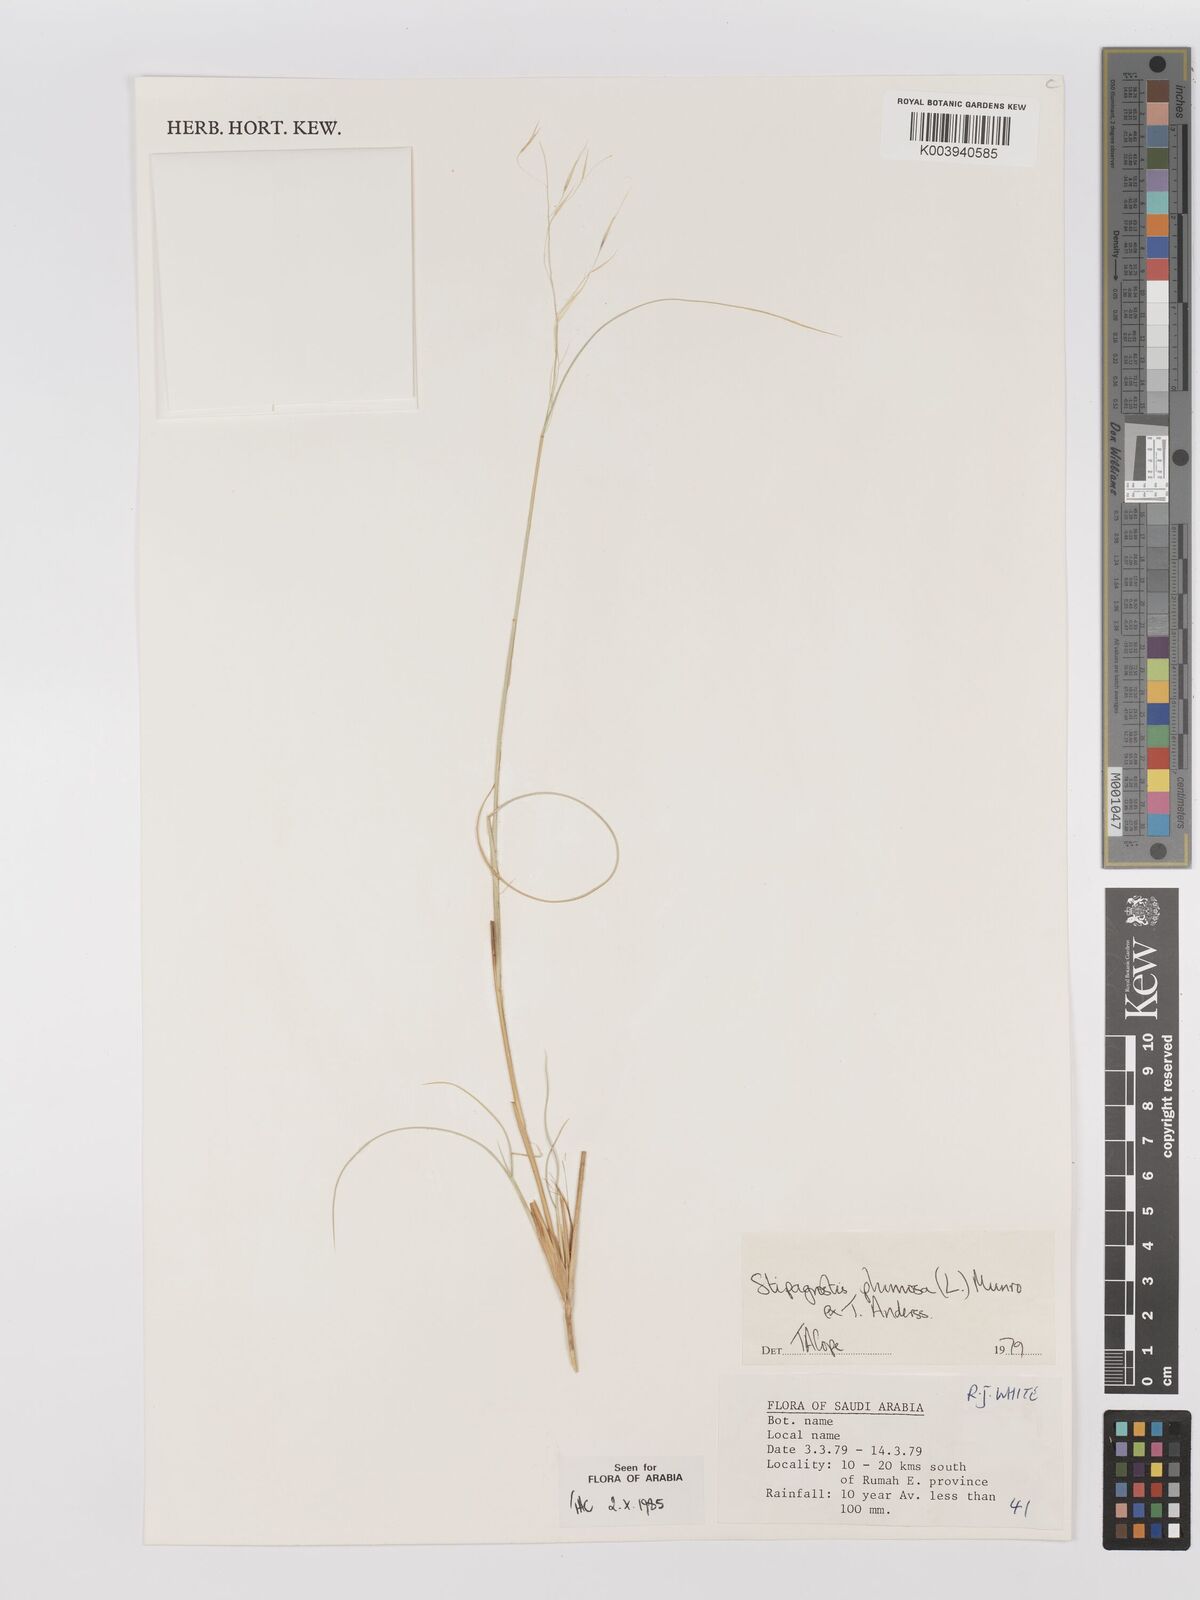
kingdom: Plantae
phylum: Tracheophyta
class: Liliopsida
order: Poales
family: Poaceae
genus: Stipagrostis
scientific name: Stipagrostis plumosa
